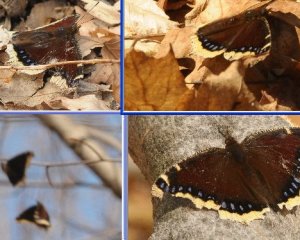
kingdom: Animalia
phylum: Arthropoda
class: Insecta
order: Lepidoptera
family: Nymphalidae
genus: Nymphalis
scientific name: Nymphalis antiopa
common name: Mourning Cloak
